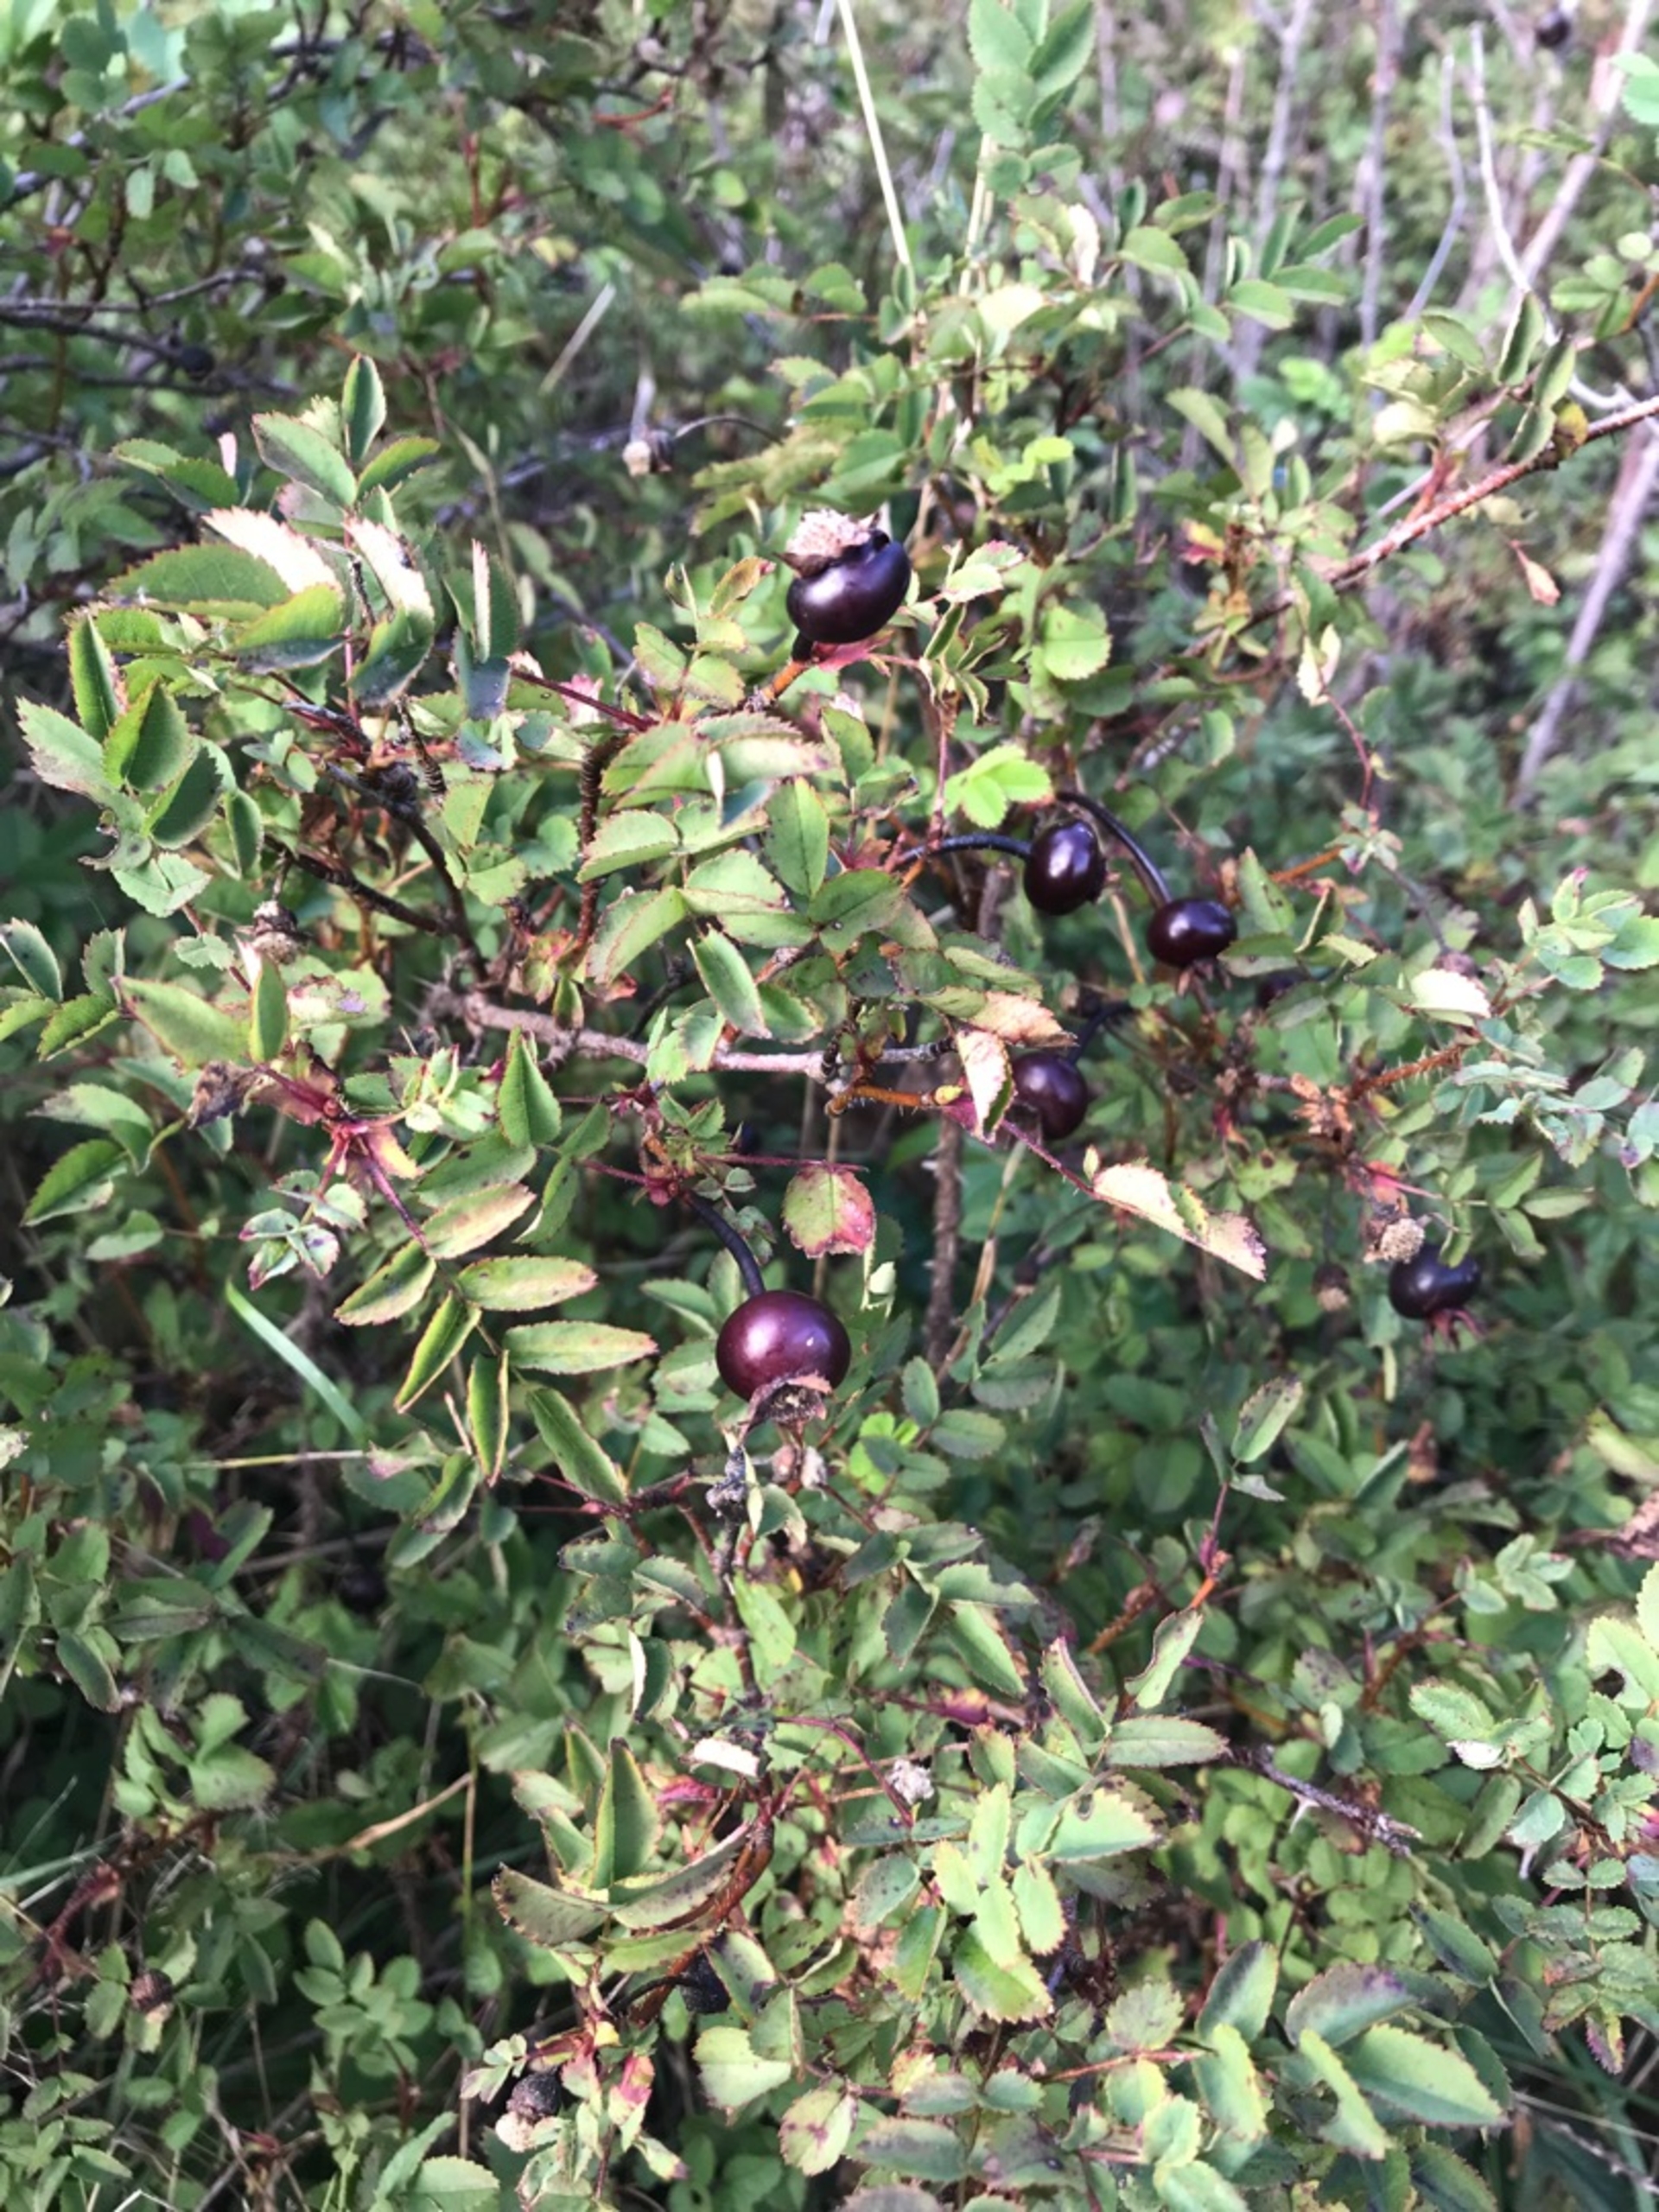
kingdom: Plantae
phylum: Tracheophyta
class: Magnoliopsida
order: Rosales
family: Rosaceae
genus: Rosa
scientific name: Rosa spinosissima
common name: Klit-rose
